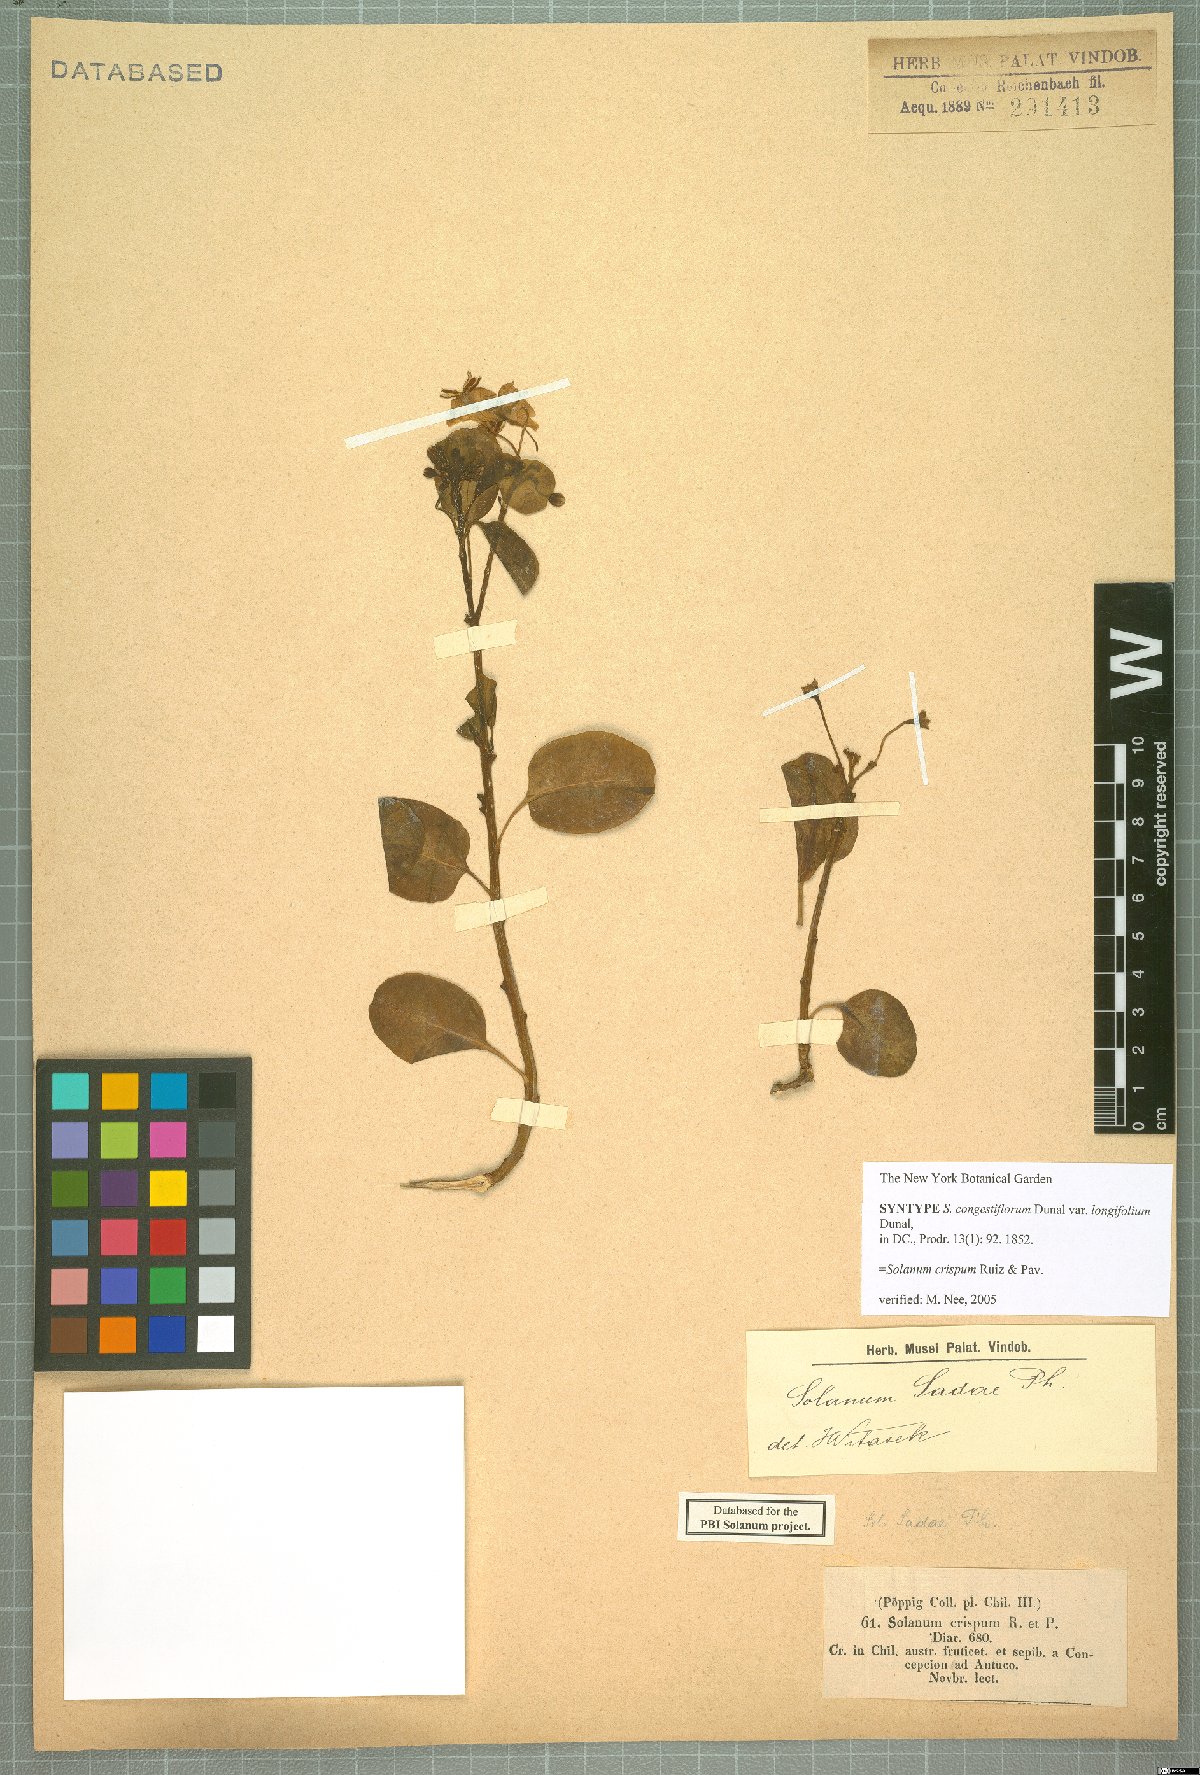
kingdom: Plantae
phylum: Tracheophyta
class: Magnoliopsida
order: Solanales
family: Solanaceae
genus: Solanum
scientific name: Solanum crispum
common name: Chilean nightshade
